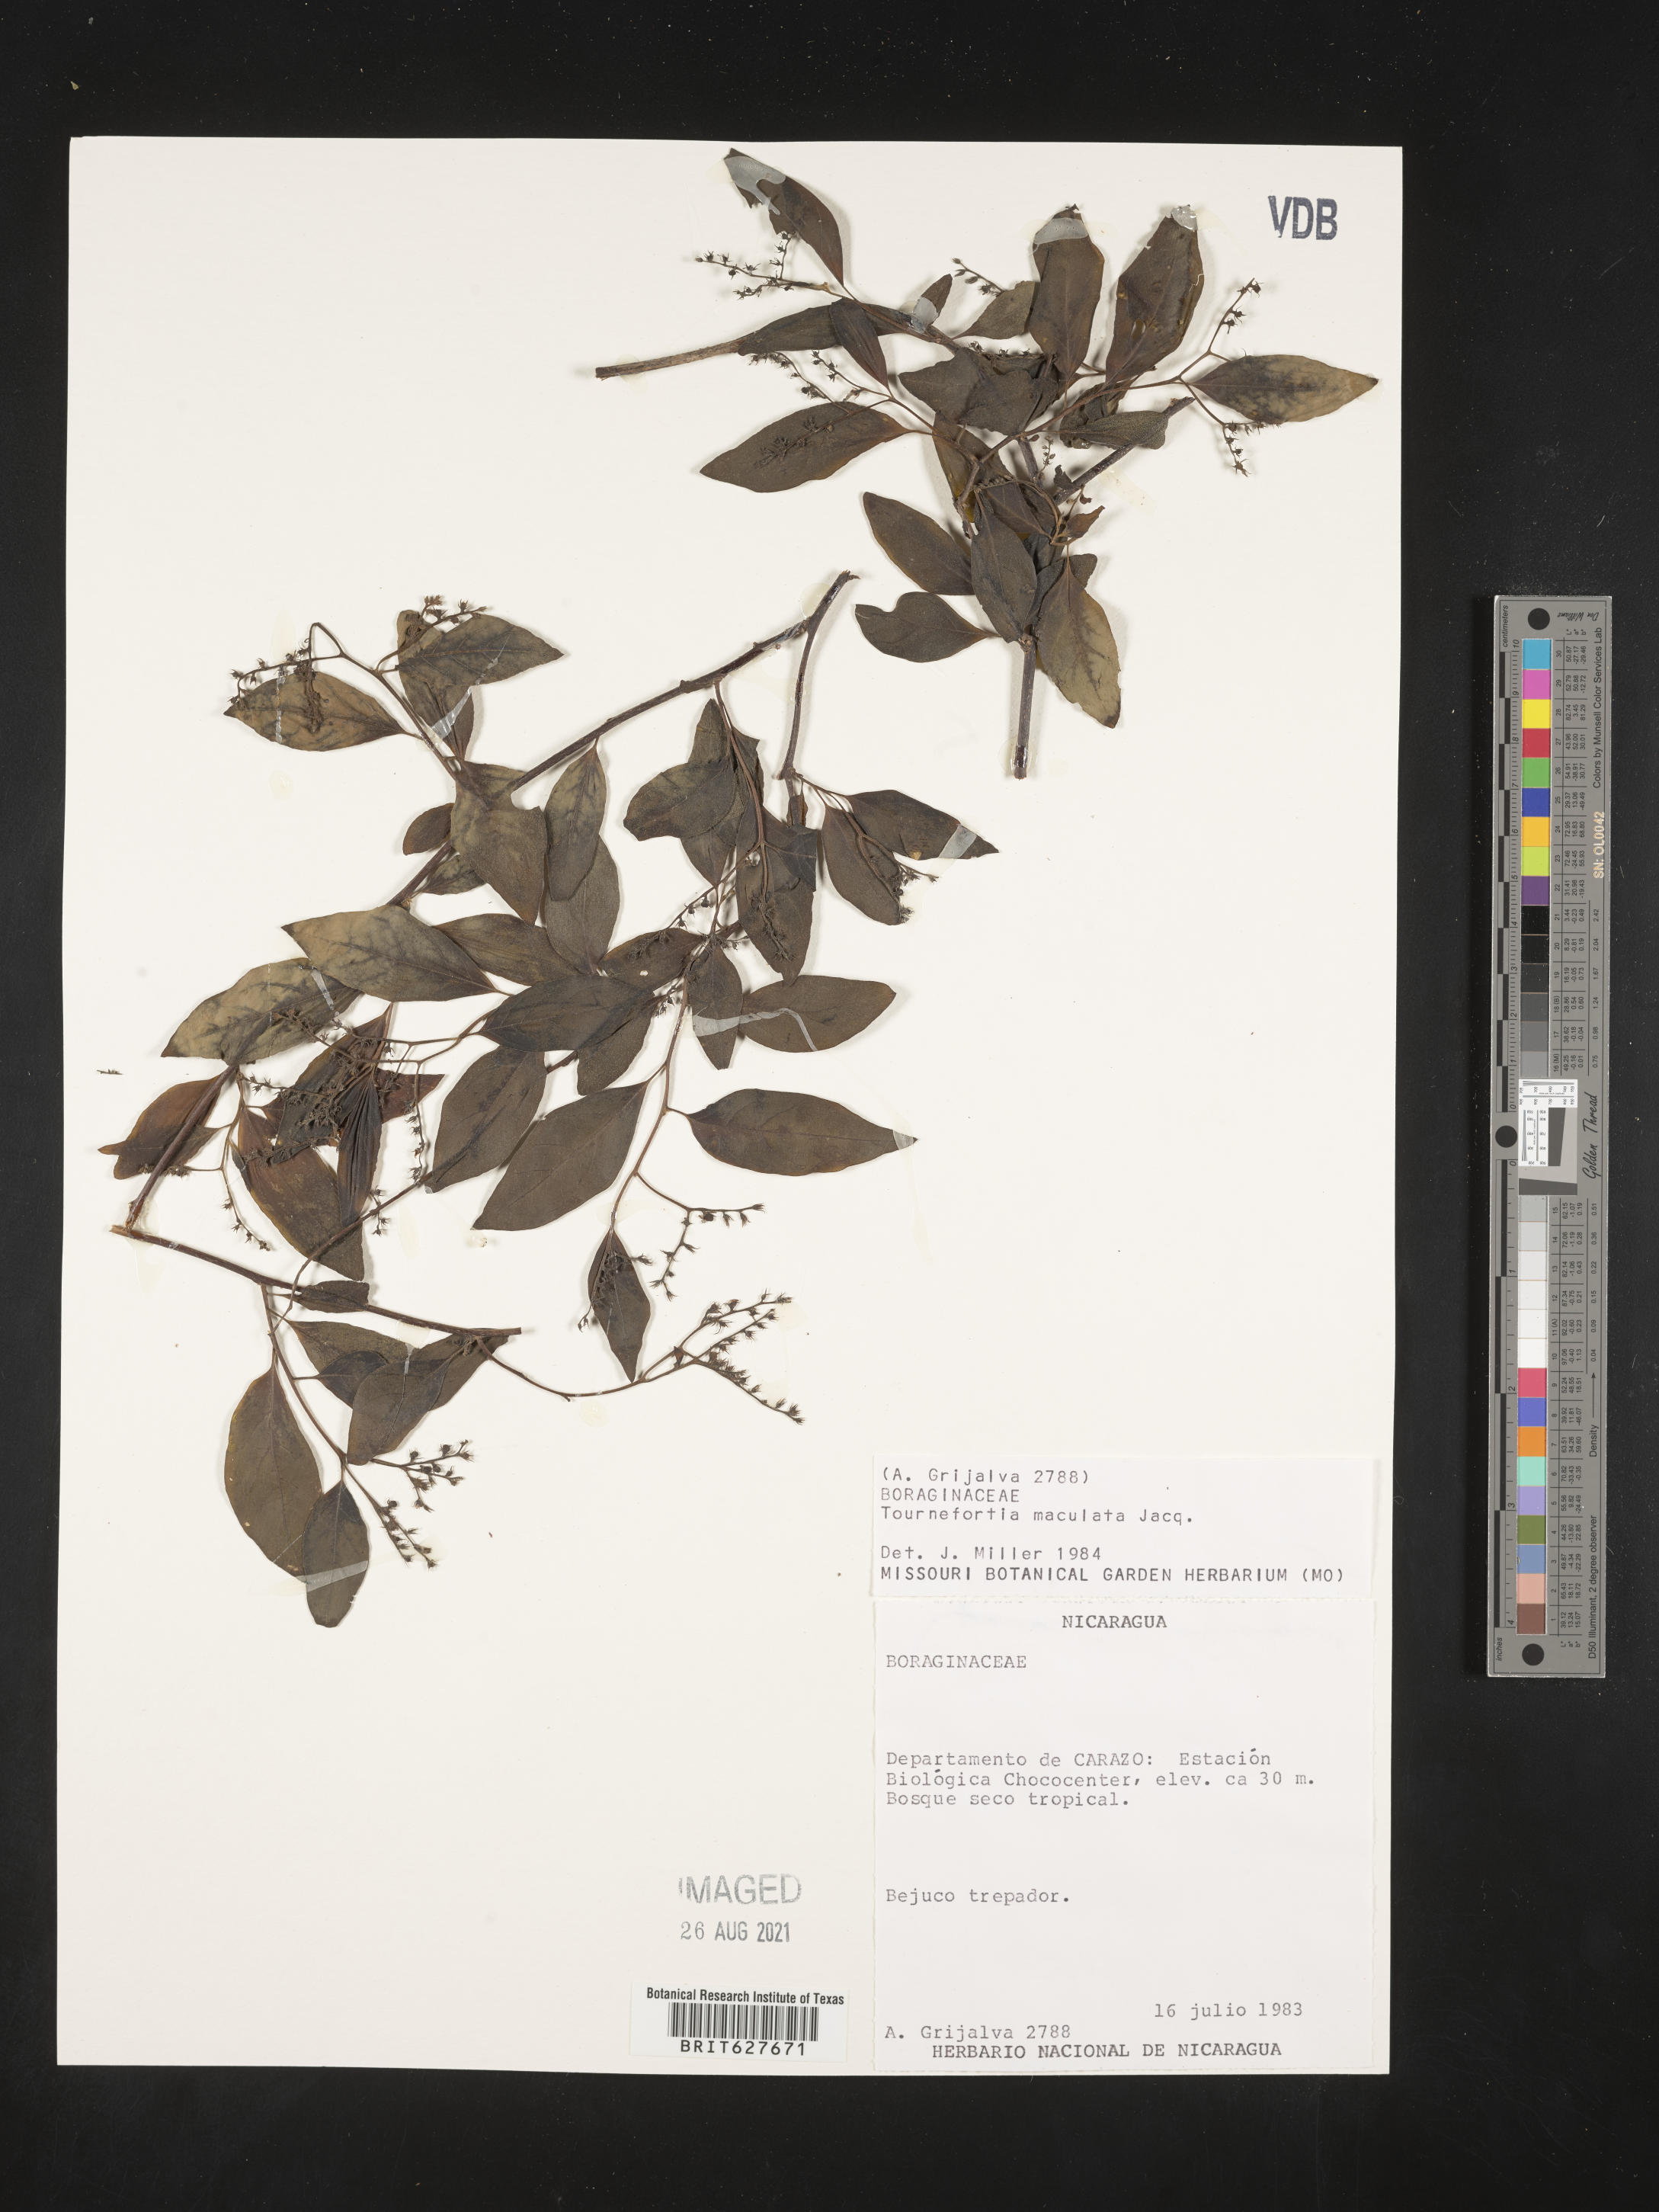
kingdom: Plantae
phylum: Tracheophyta
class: Magnoliopsida
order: Boraginales
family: Heliotropiaceae
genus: Myriopus
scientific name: Myriopus maculatus
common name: Laurel-leaf soldierbush
